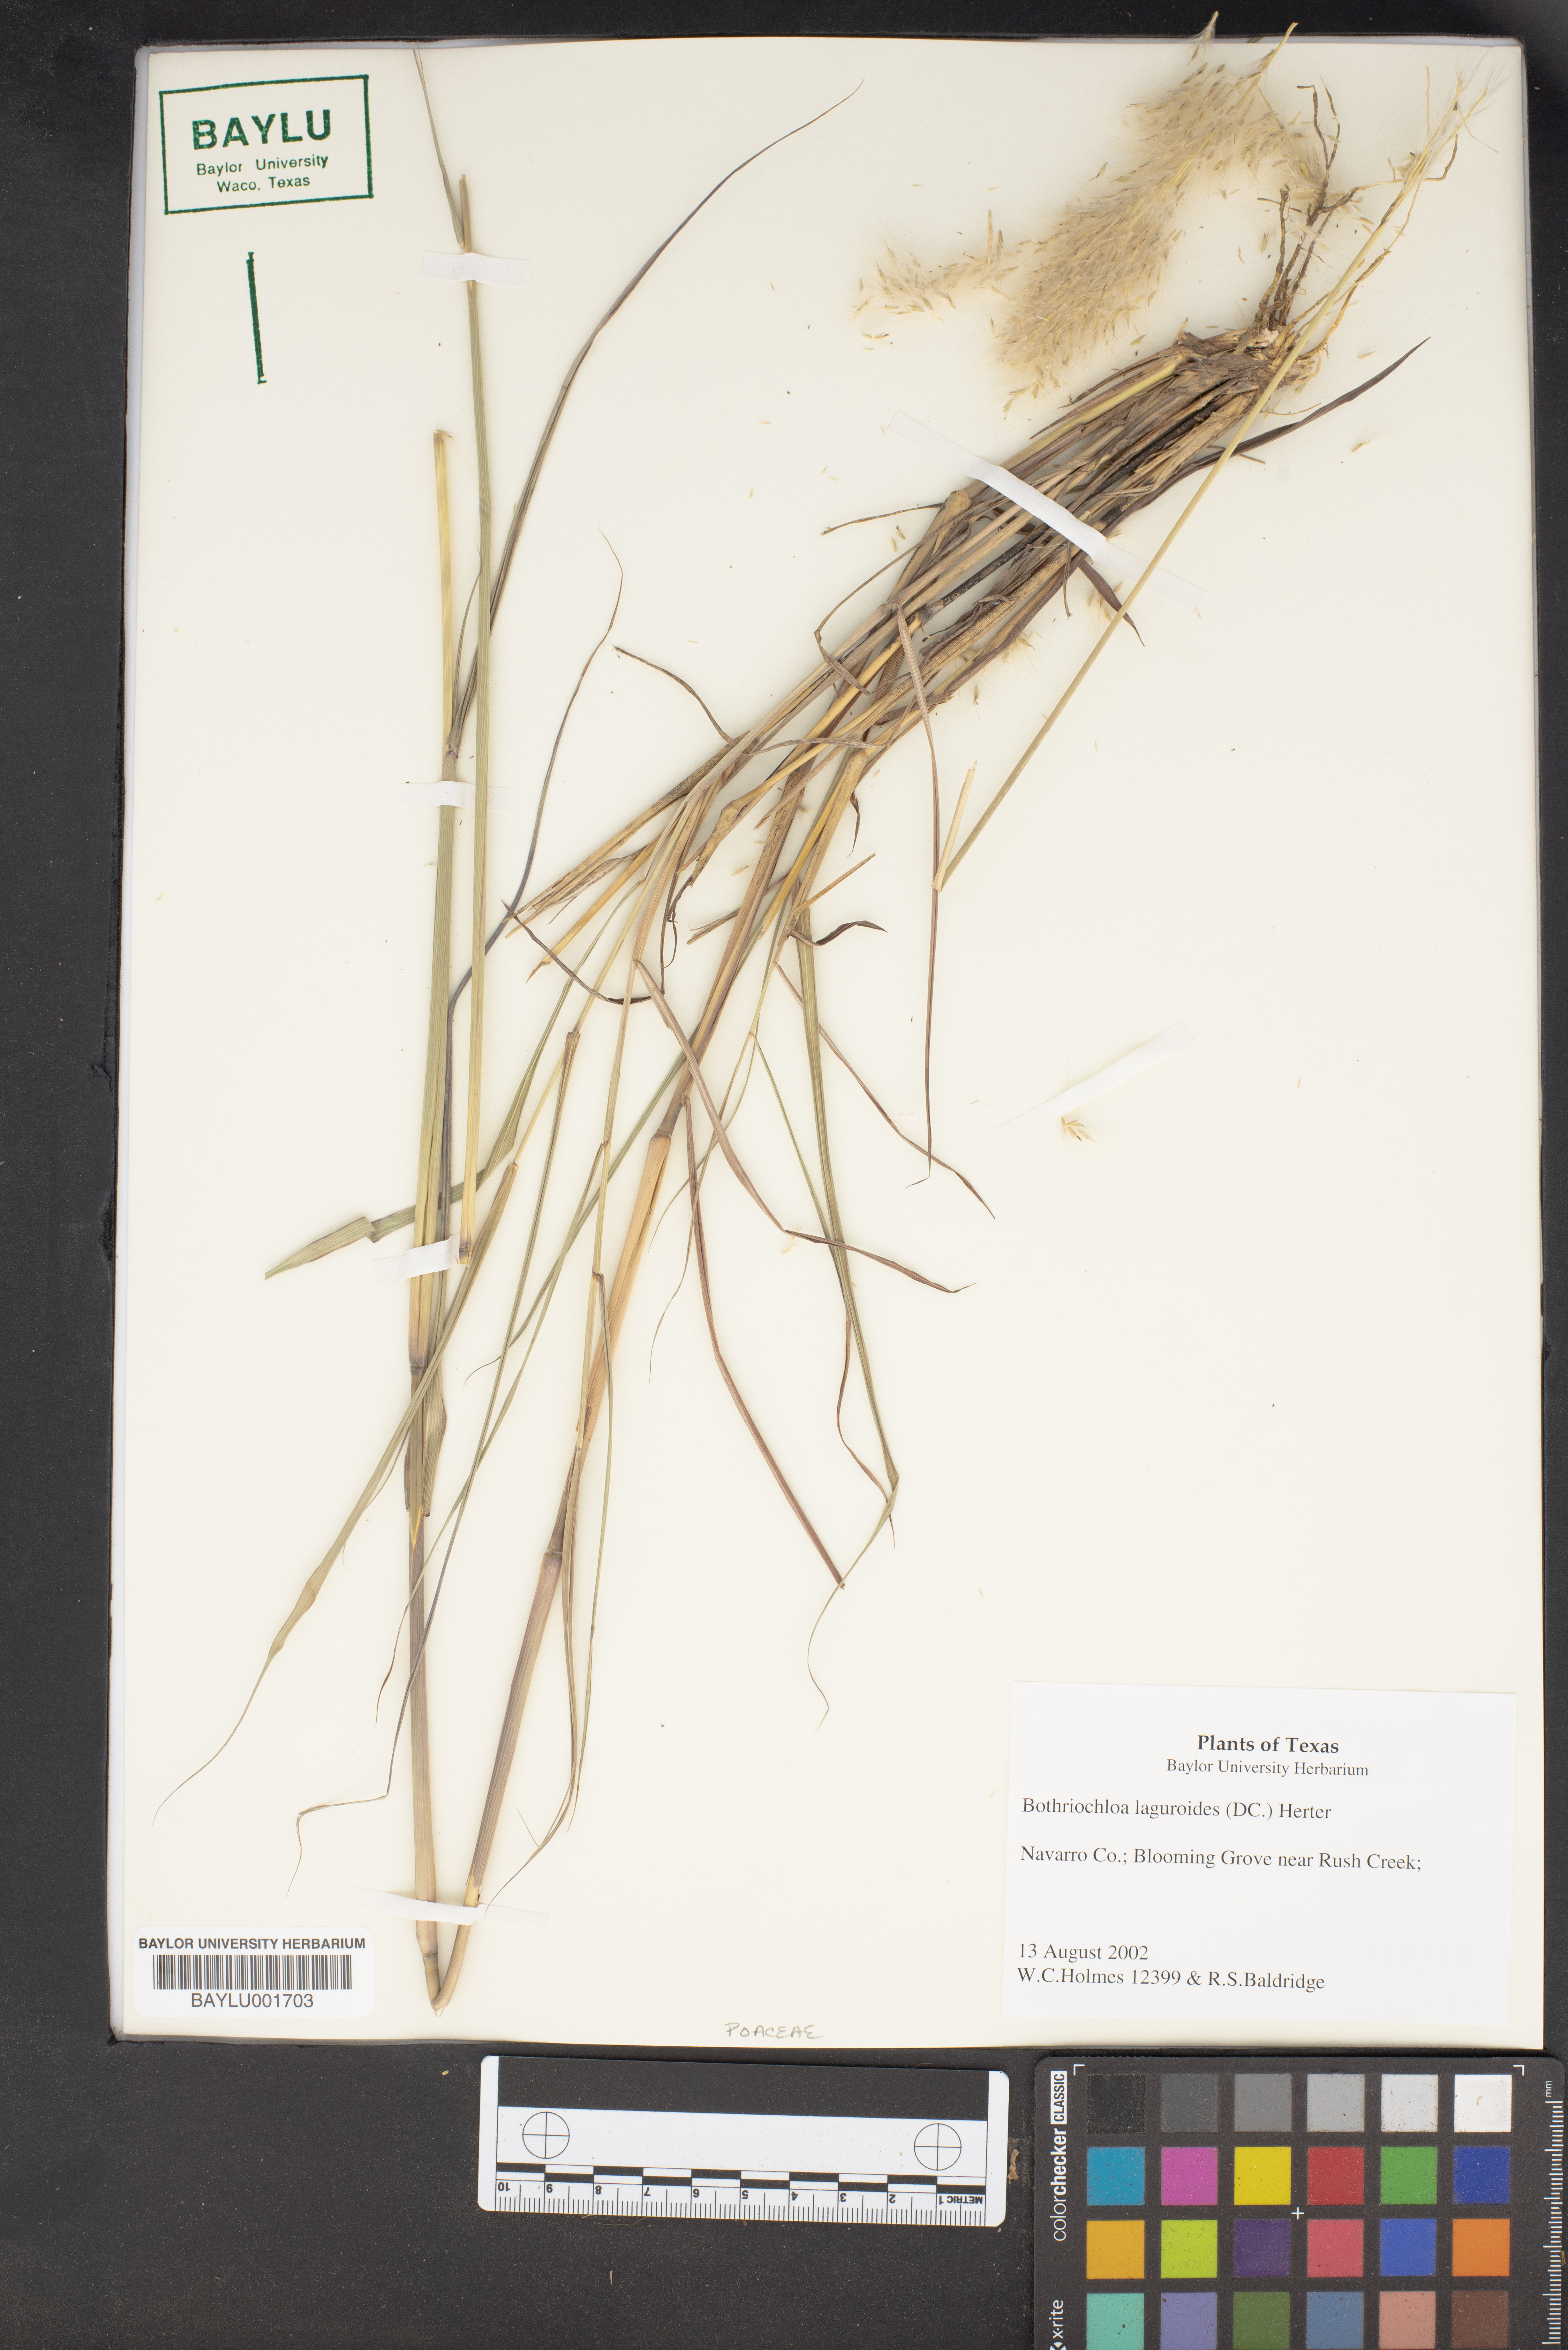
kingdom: Plantae
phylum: Tracheophyta
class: Liliopsida
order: Poales
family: Poaceae
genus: Bothriochloa
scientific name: Bothriochloa laguroides
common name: Silver bluestem
